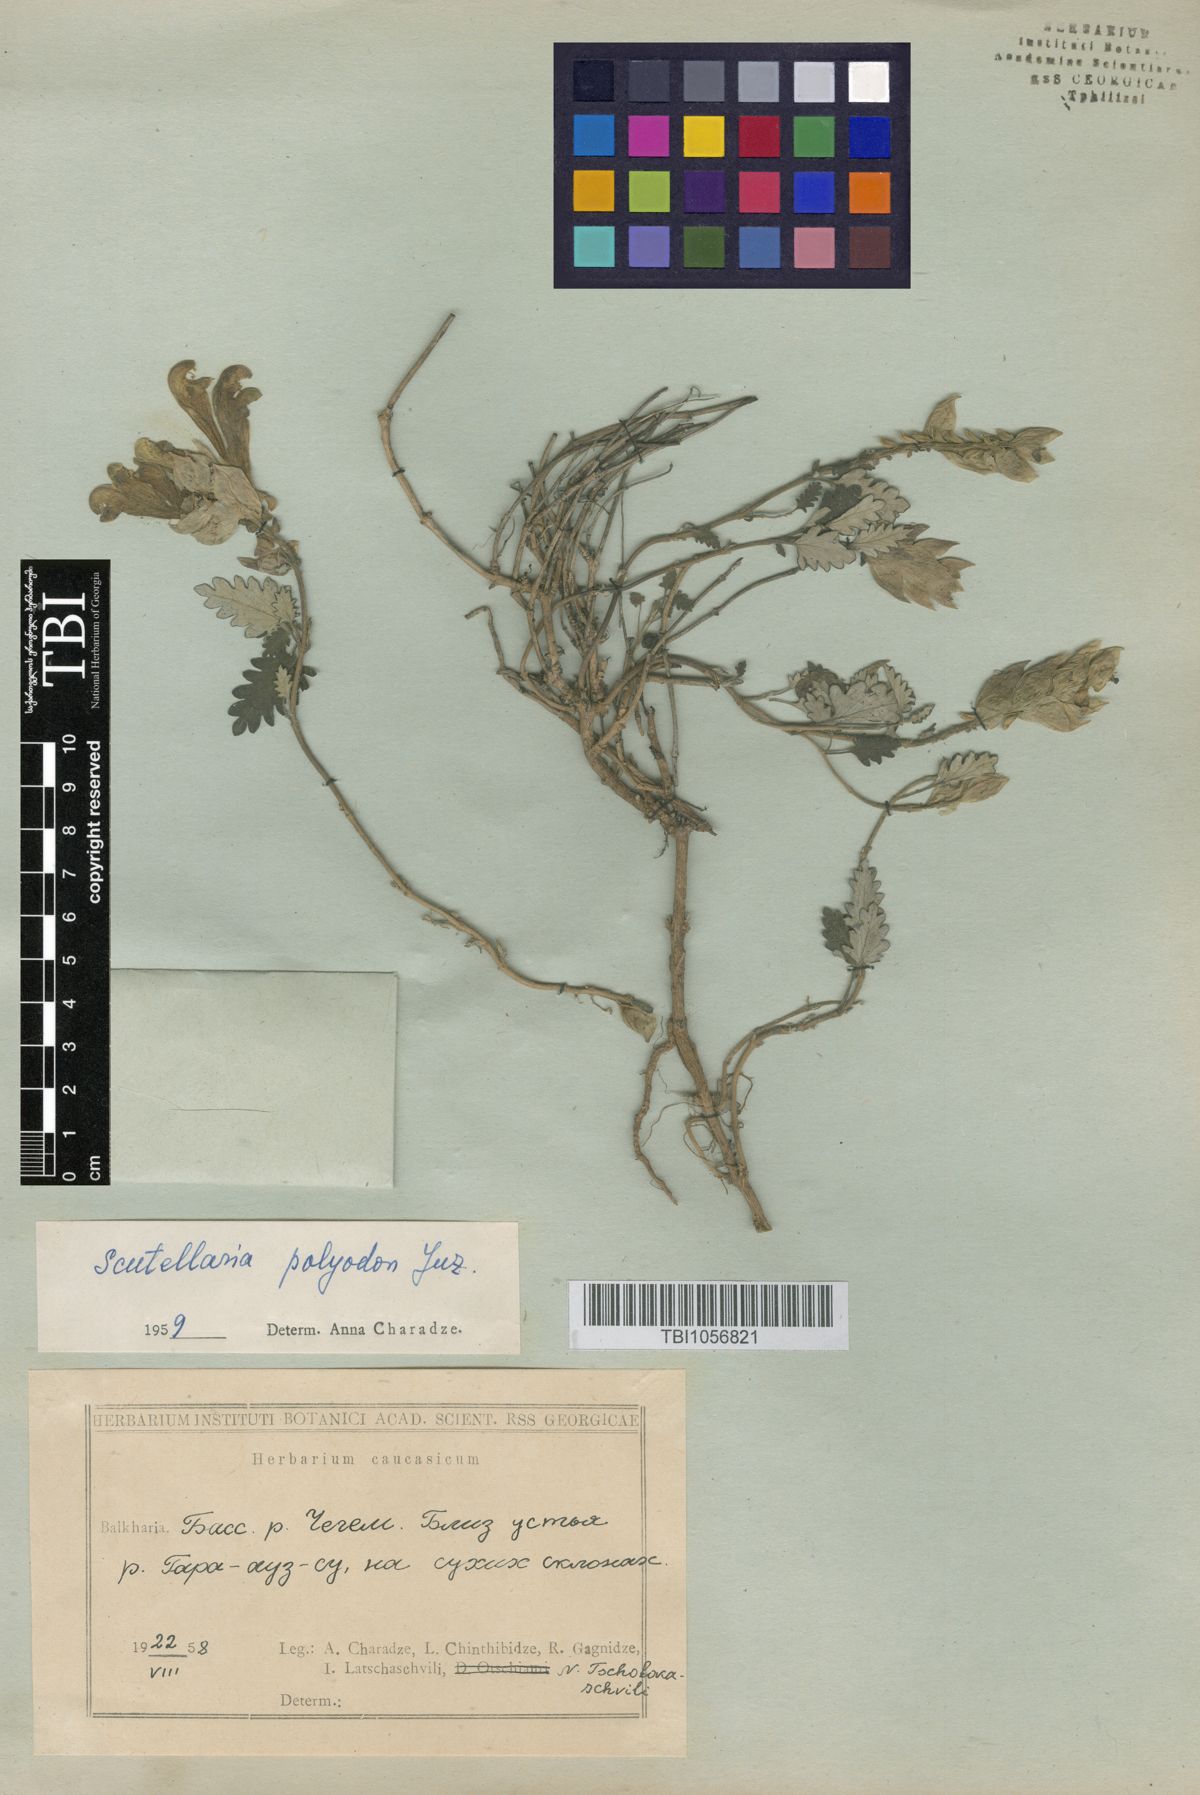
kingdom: Plantae
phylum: Tracheophyta
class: Magnoliopsida
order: Lamiales
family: Lamiaceae
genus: Scutellaria
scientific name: Scutellaria caucasica
